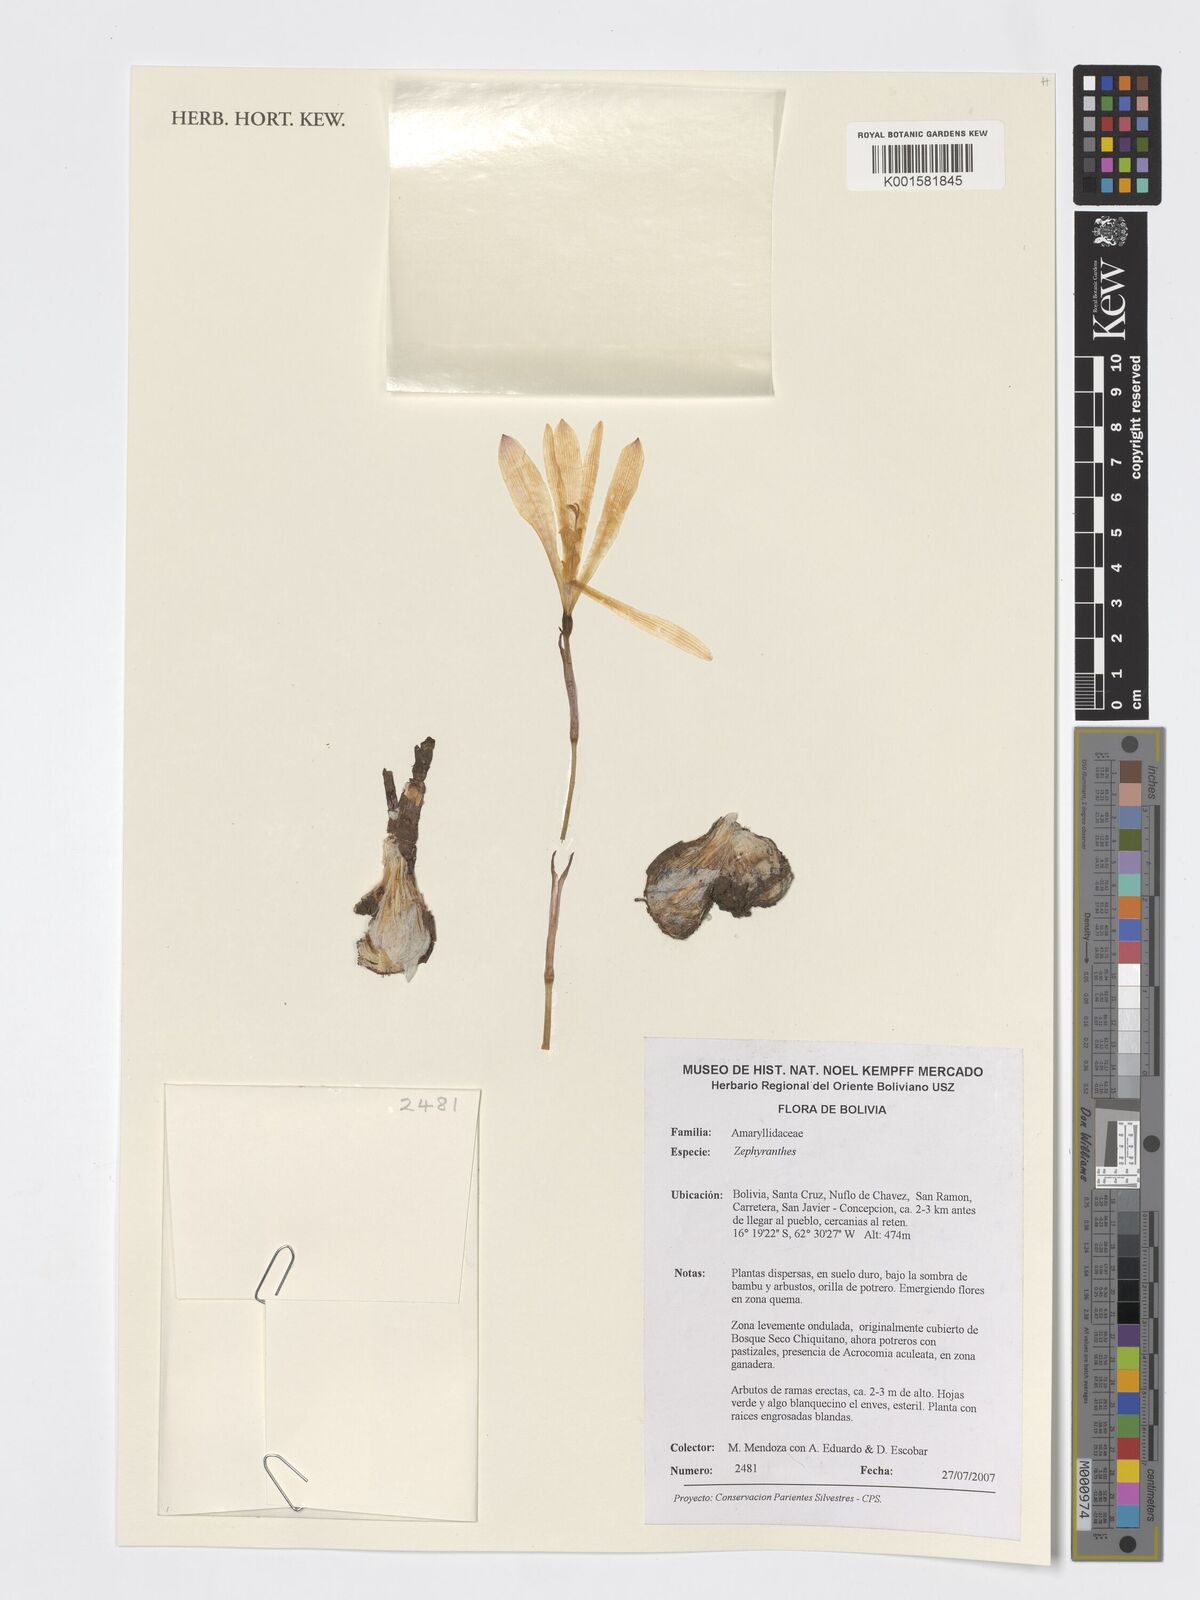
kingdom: Plantae
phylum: Tracheophyta
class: Liliopsida
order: Asparagales
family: Amaryllidaceae
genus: Zephyranthes
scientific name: Zephyranthes
